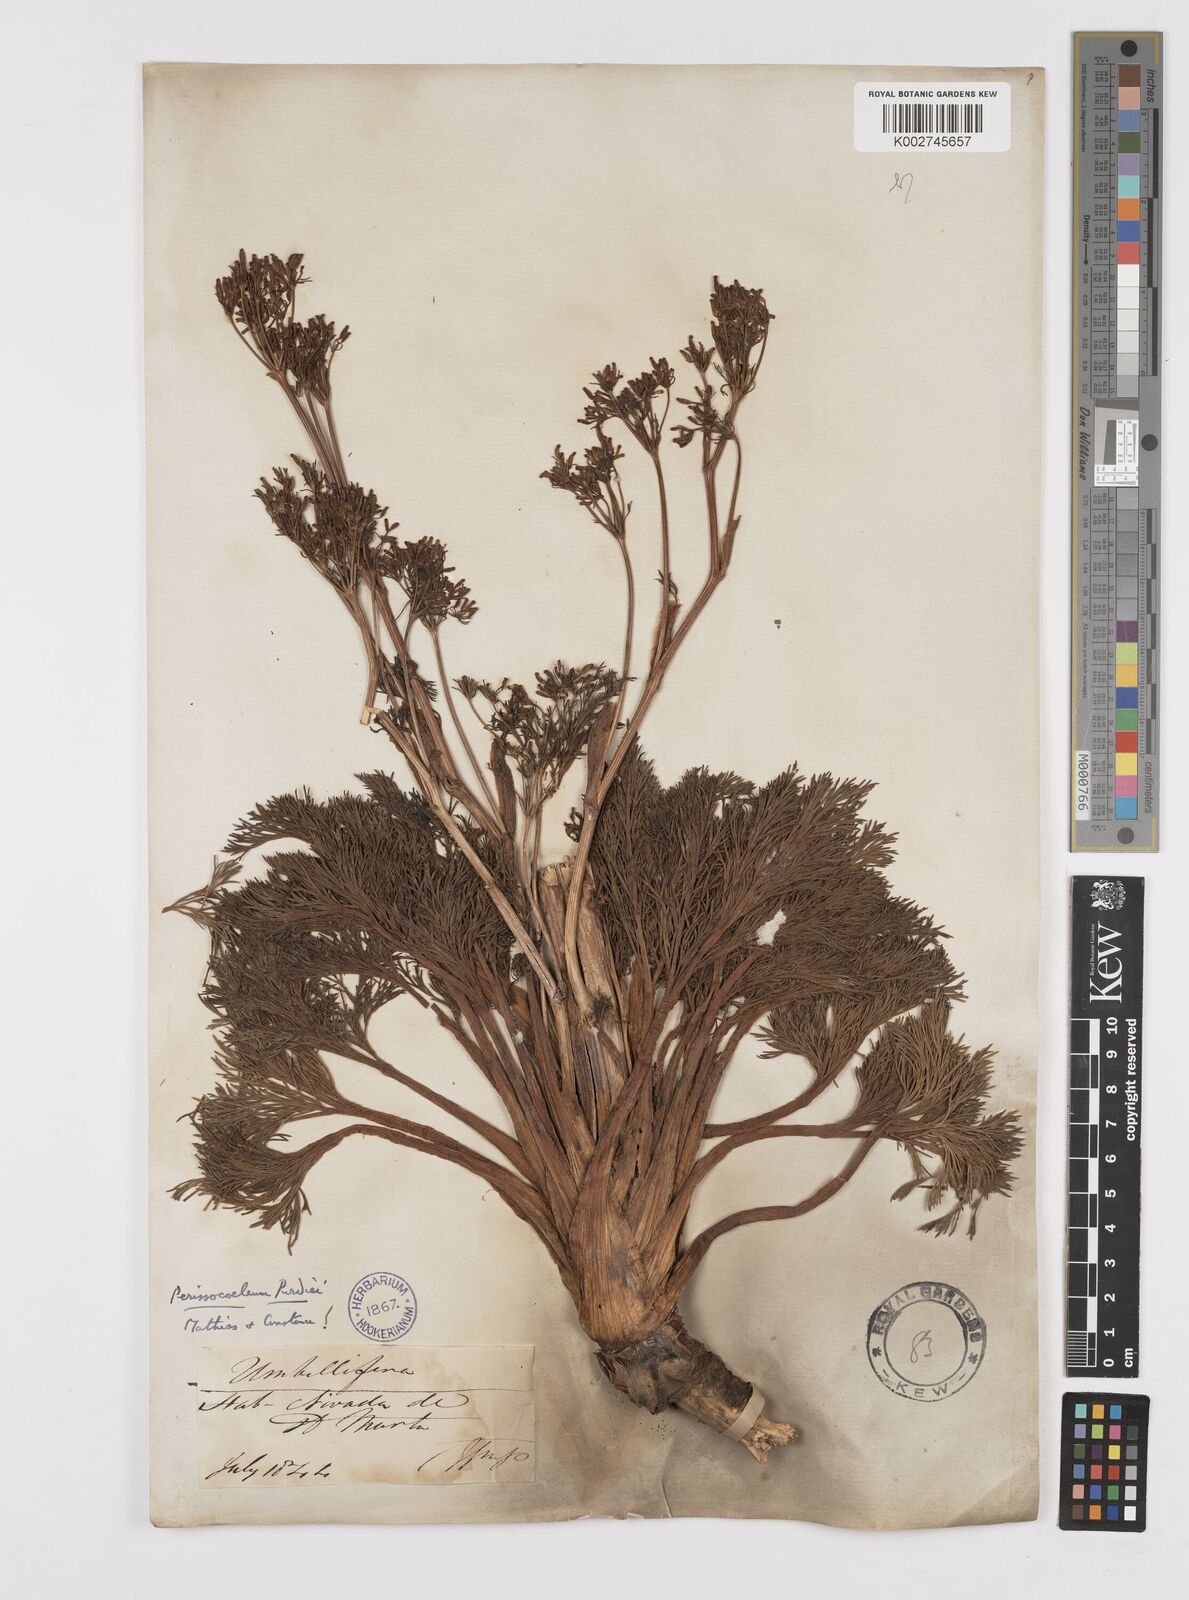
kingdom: Plantae
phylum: Tracheophyta
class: Magnoliopsida
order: Apiales
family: Apiaceae
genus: Perissocoeleum
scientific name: Perissocoeleum purdiei
